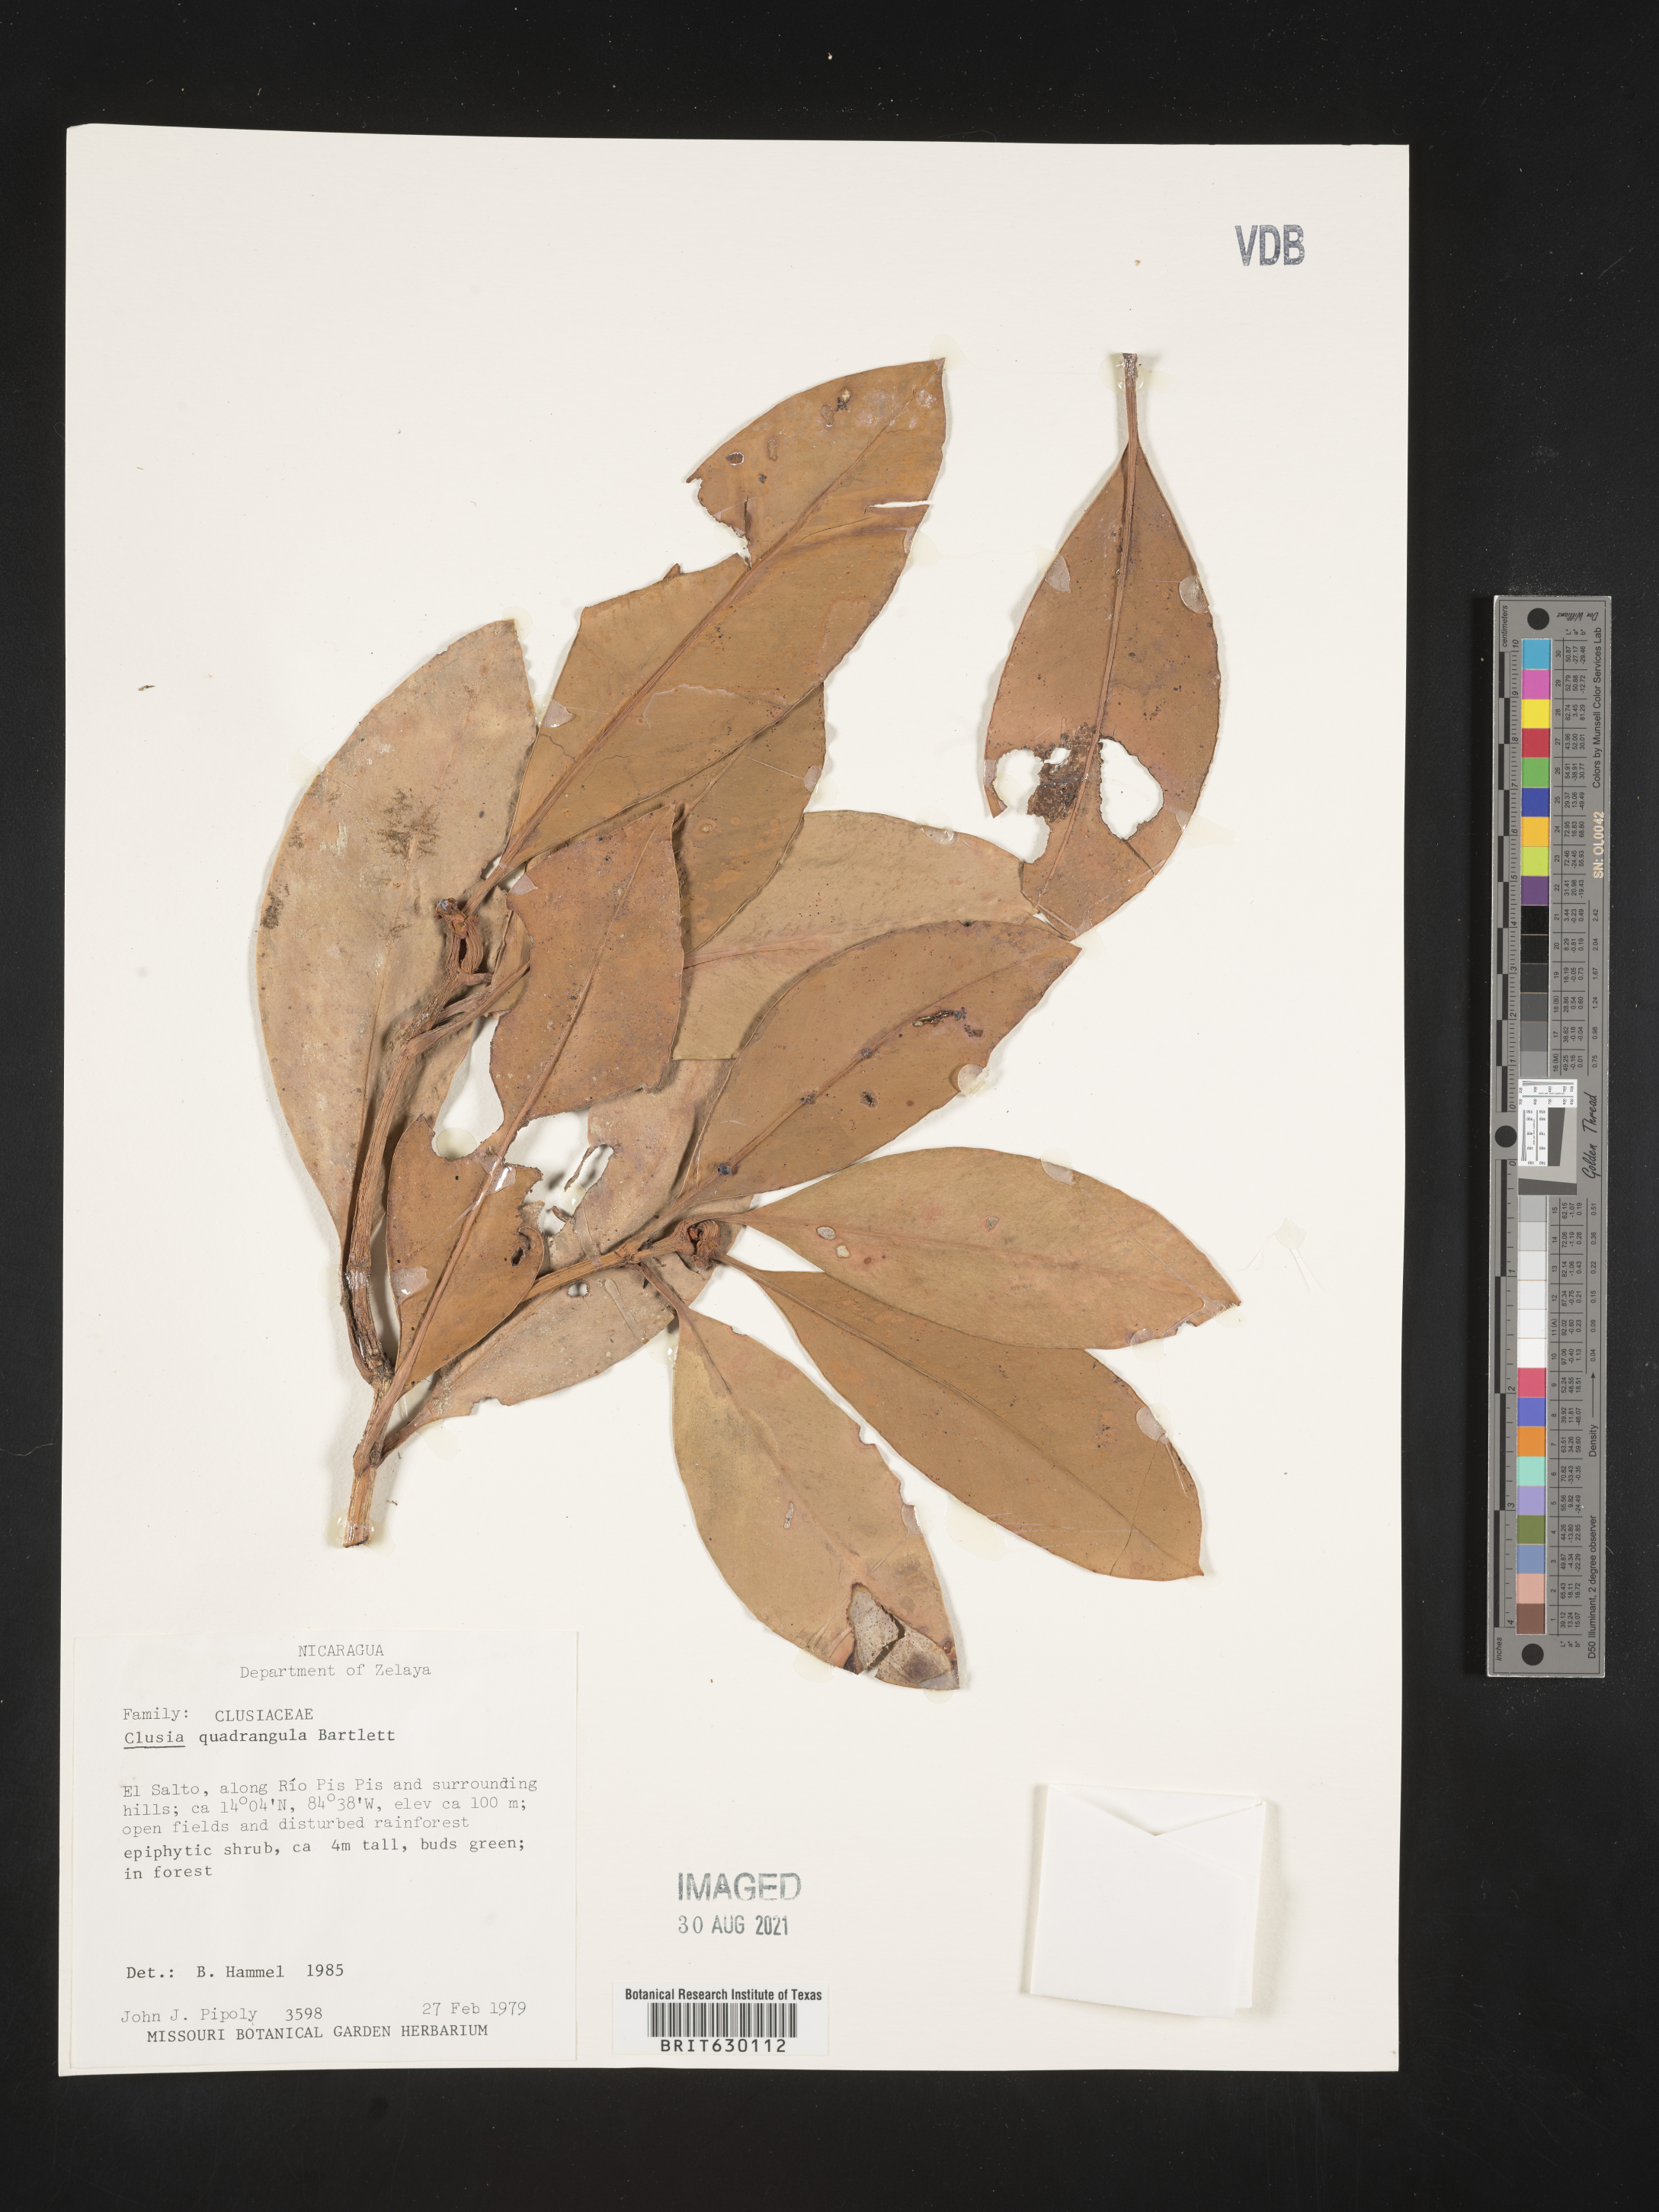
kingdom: Plantae
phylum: Tracheophyta
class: Magnoliopsida
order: Malpighiales
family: Clusiaceae
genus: Clusia
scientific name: Clusia quadrangula
